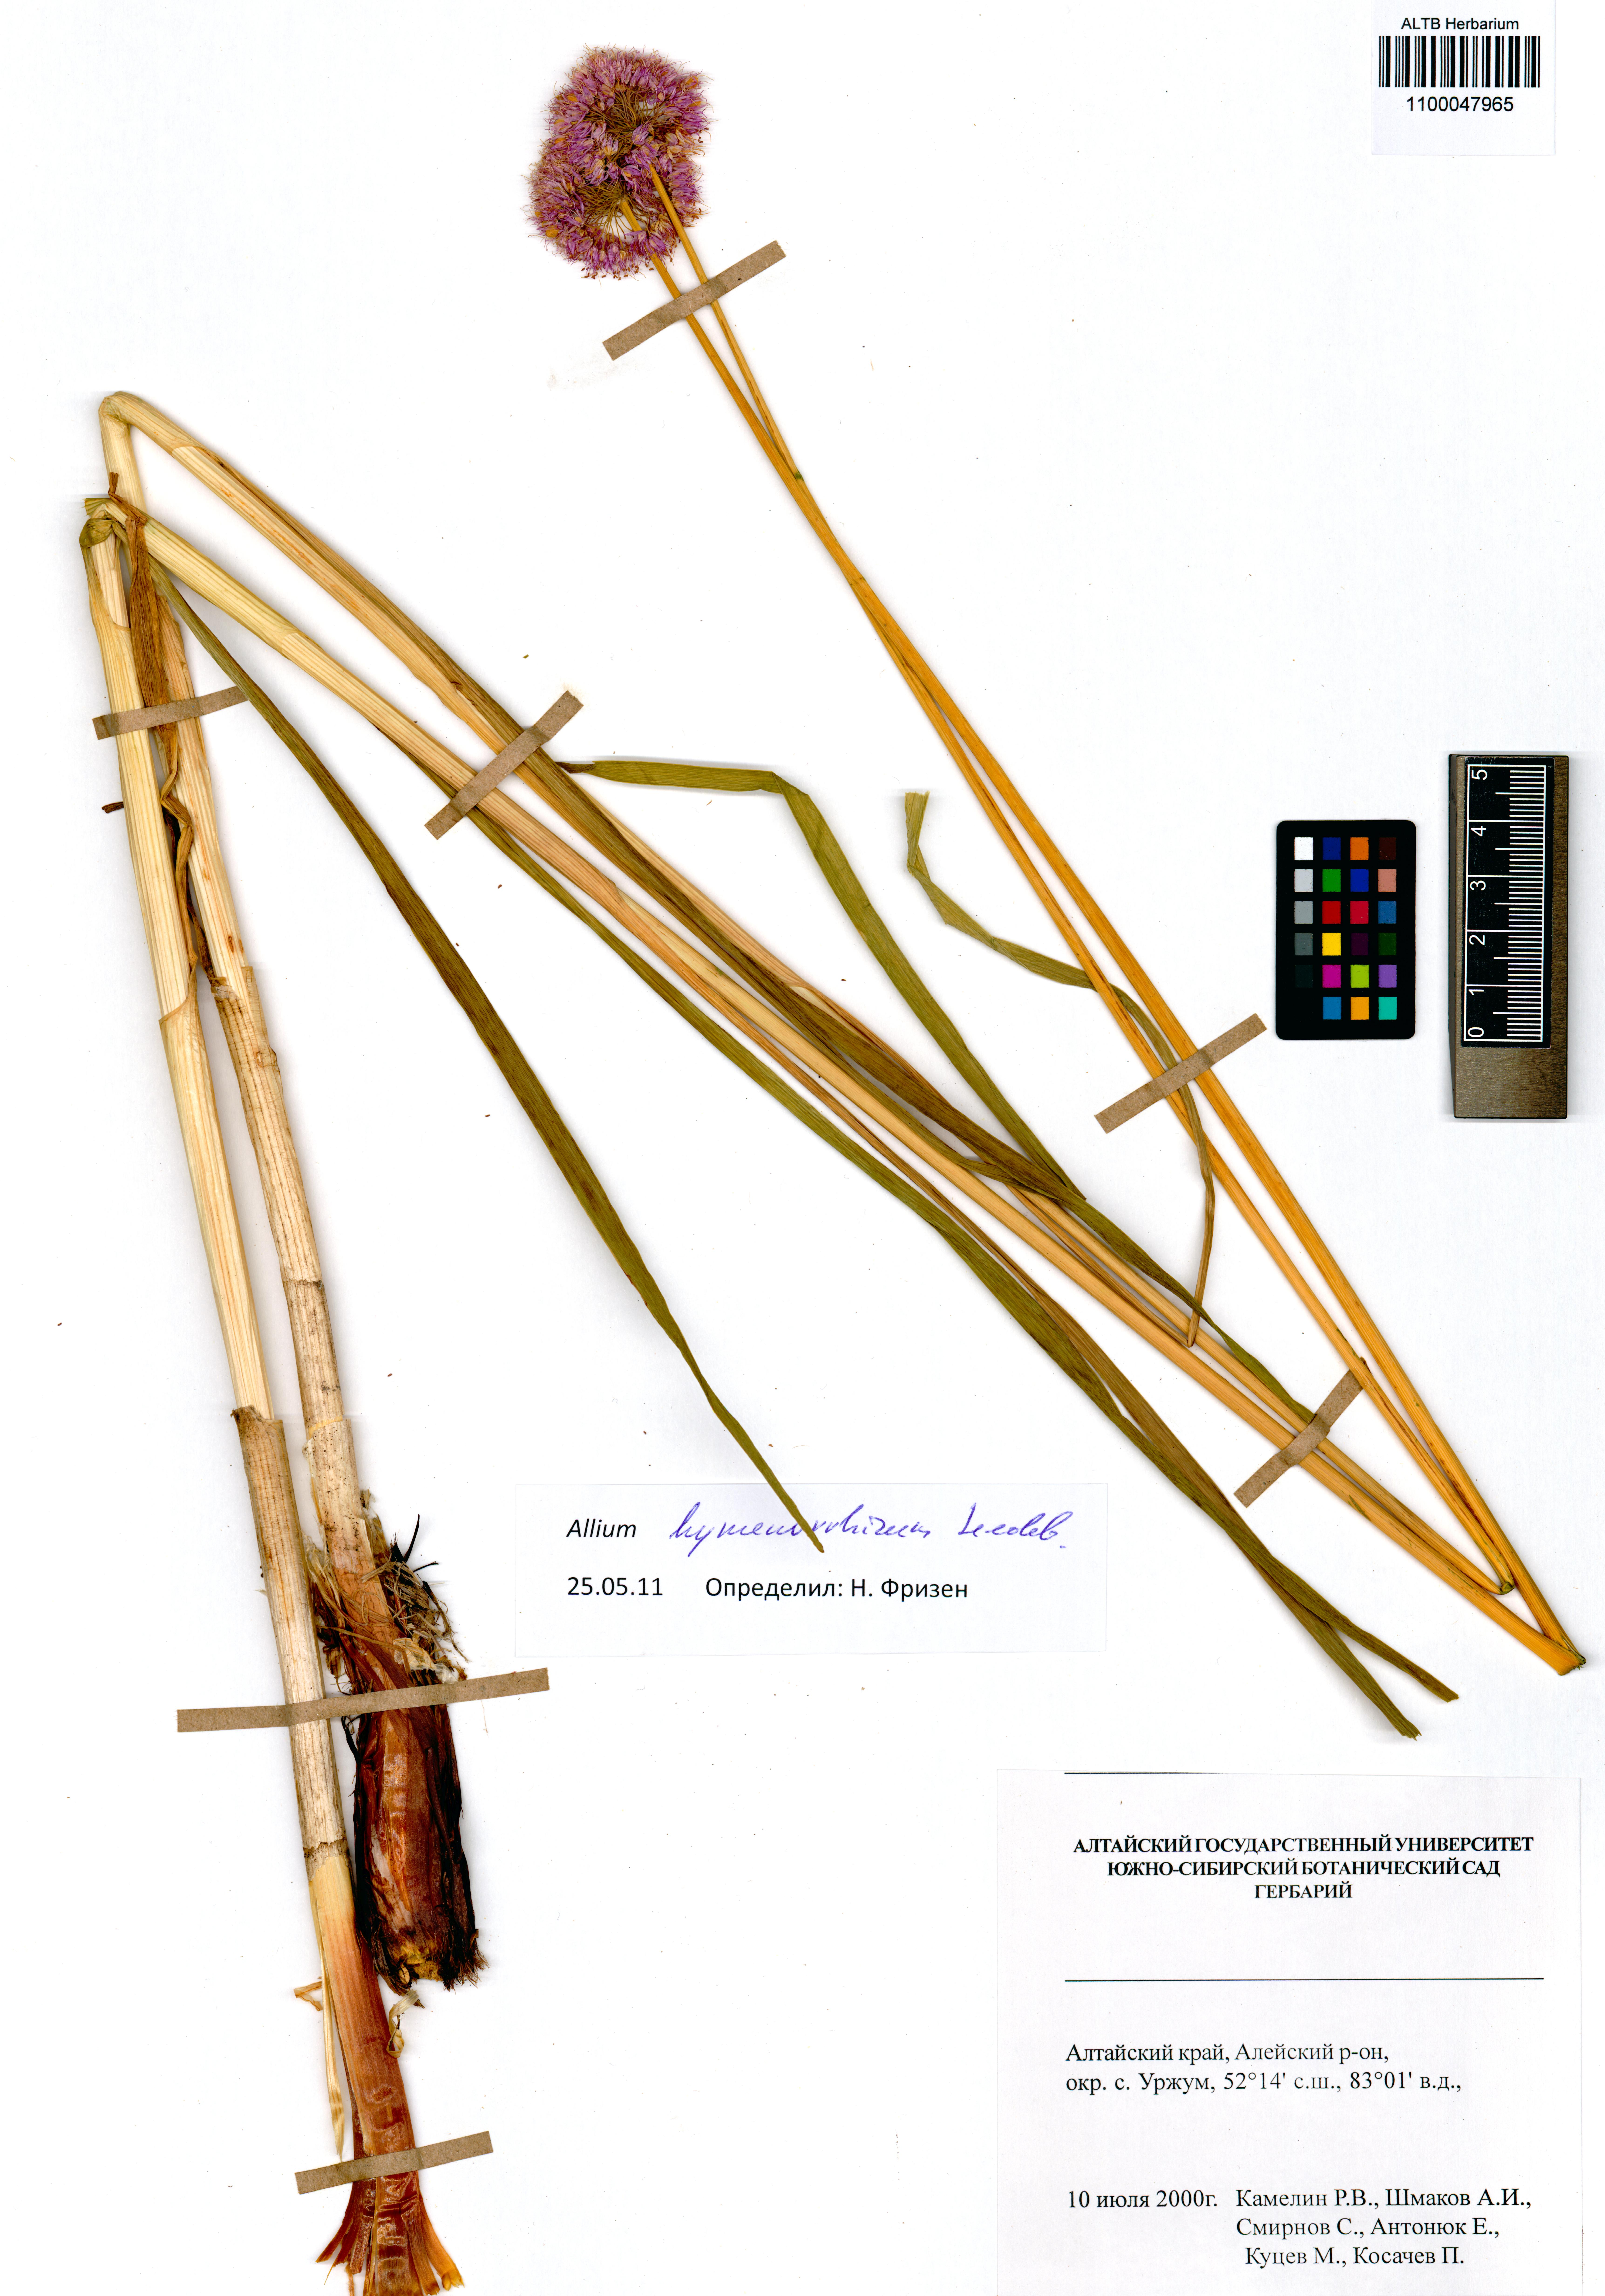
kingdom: Plantae
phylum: Tracheophyta
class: Liliopsida
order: Asparagales
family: Amaryllidaceae
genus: Allium
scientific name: Allium hymenorhizum
